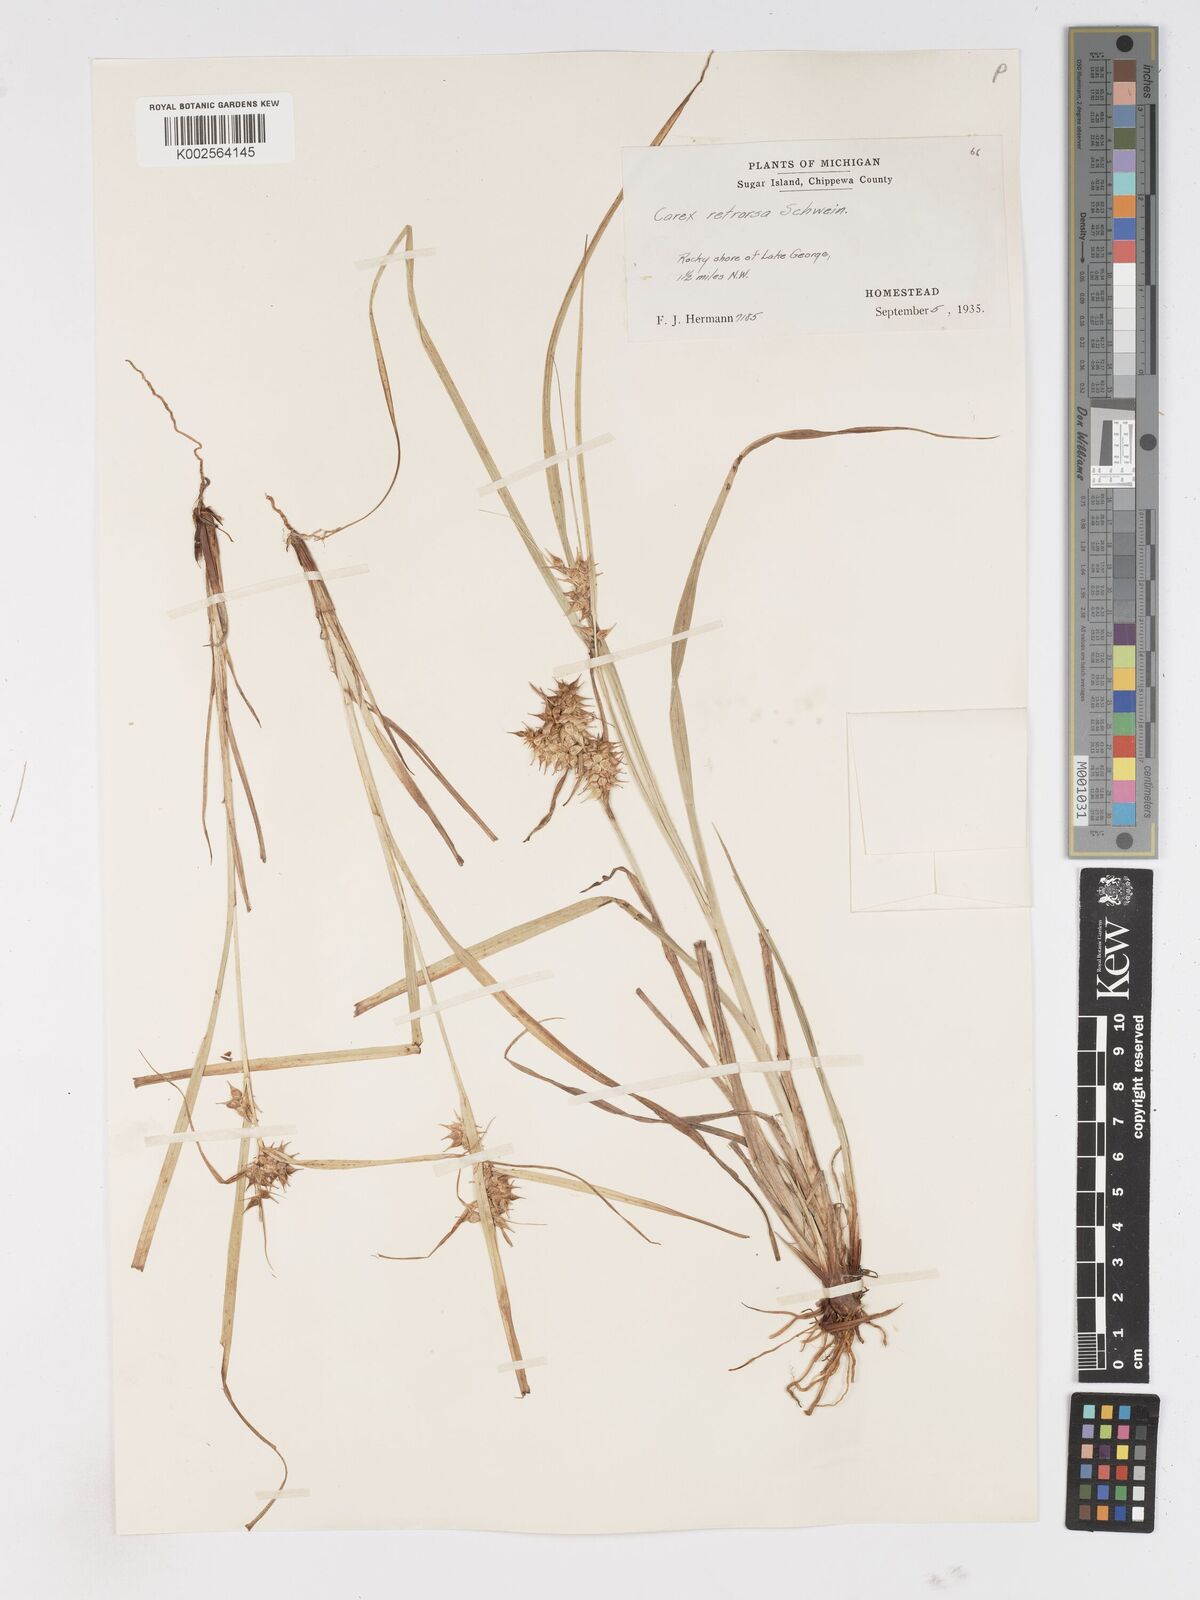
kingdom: Plantae
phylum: Tracheophyta
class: Liliopsida
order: Poales
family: Cyperaceae
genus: Carex
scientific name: Carex retrorsa
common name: Knot-sheath sedge
